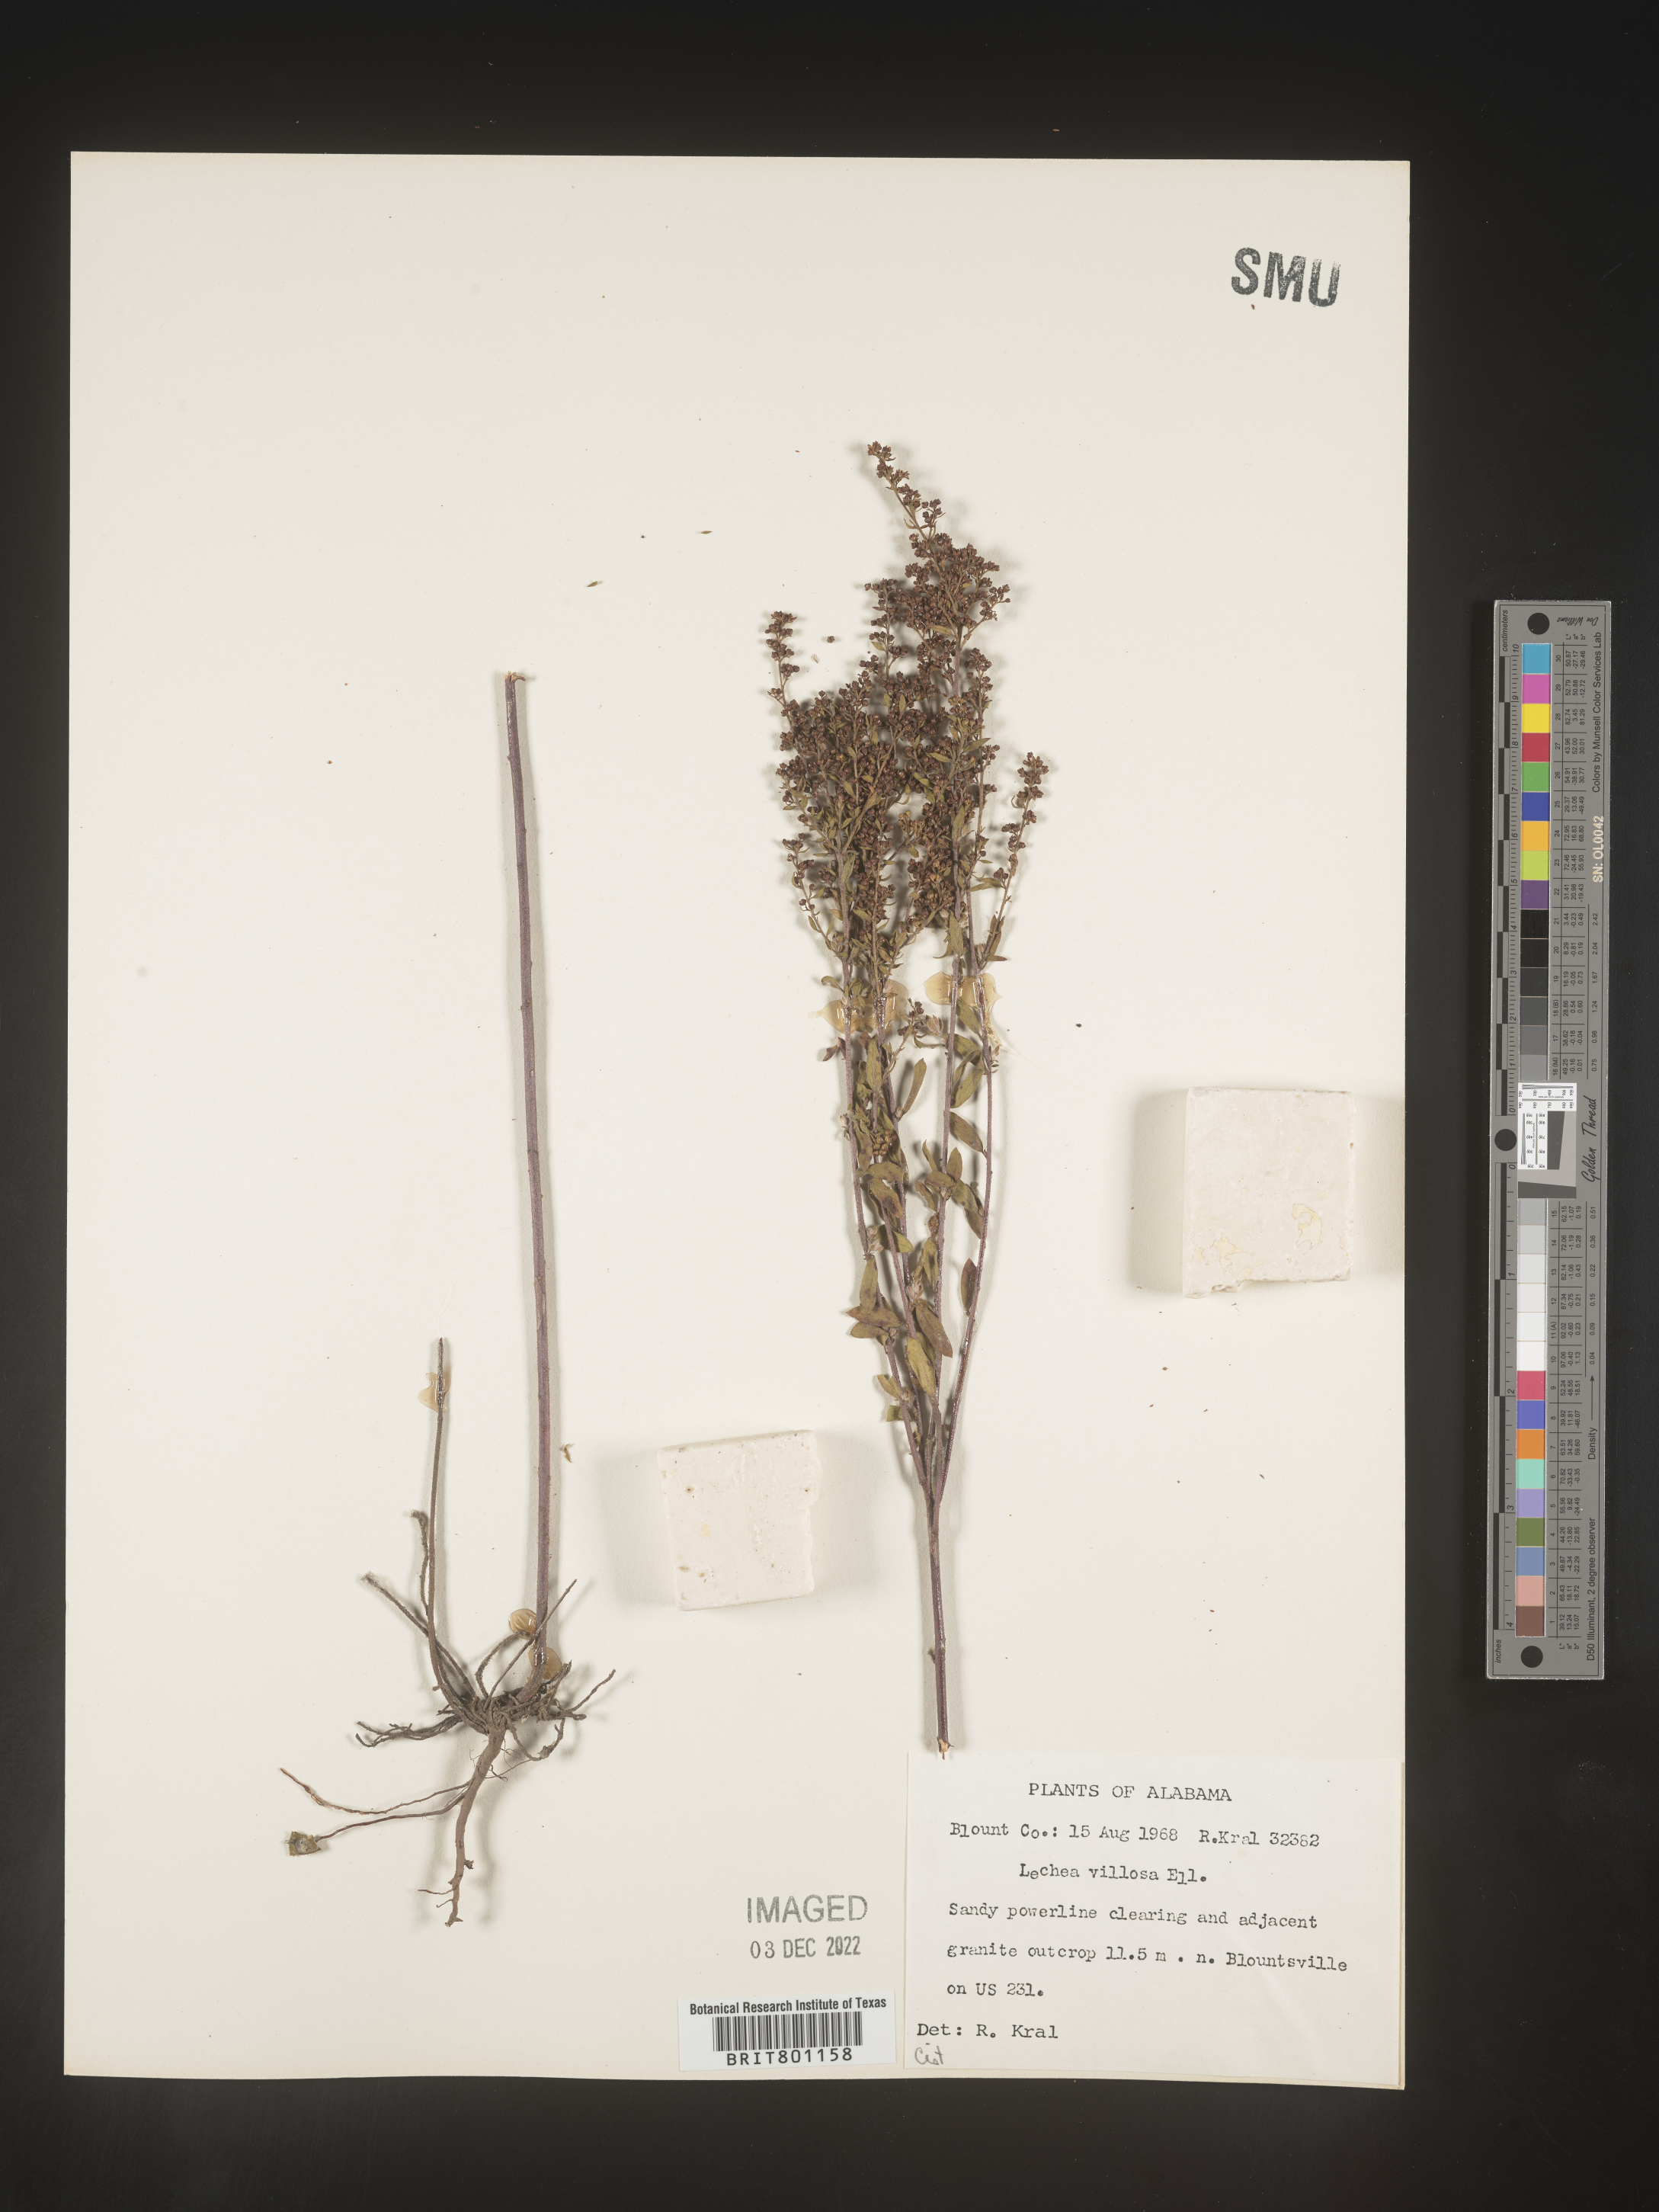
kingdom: Plantae
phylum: Tracheophyta
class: Magnoliopsida
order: Malvales
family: Cistaceae
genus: Lechea
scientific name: Lechea mucronata
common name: Hairy pinweed
